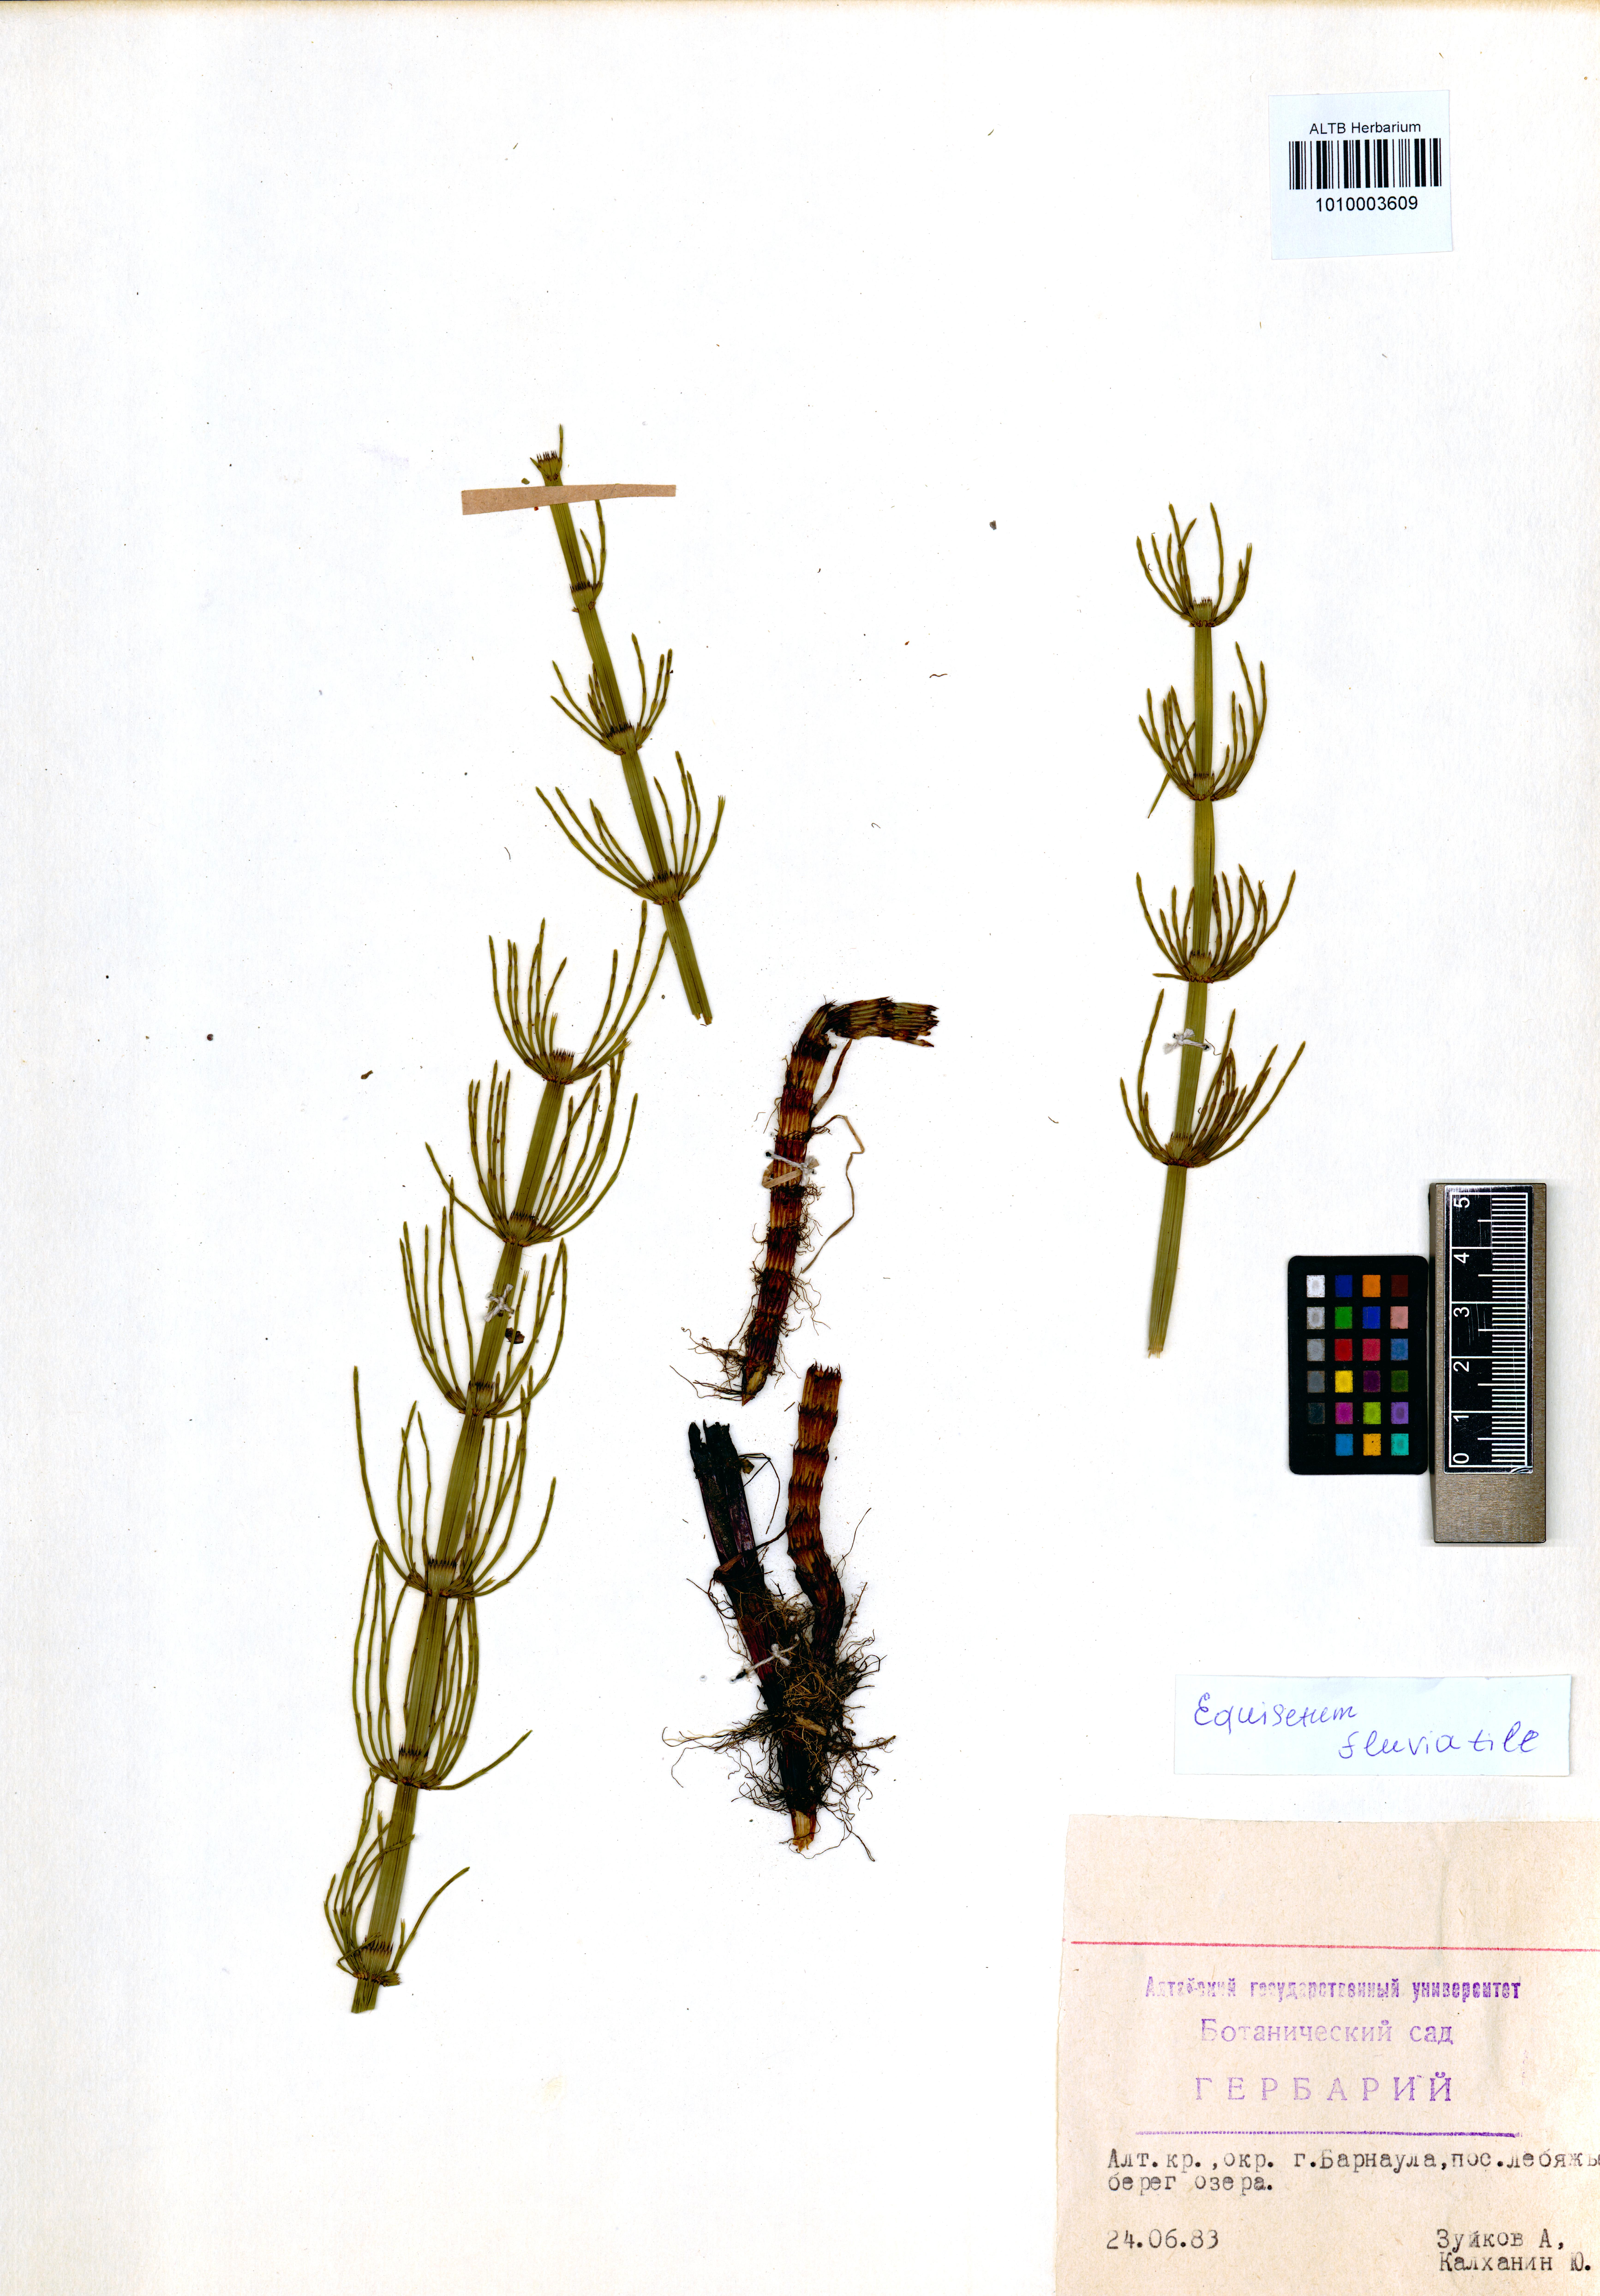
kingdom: Plantae
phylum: Tracheophyta
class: Polypodiopsida
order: Equisetales
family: Equisetaceae
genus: Equisetum
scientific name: Equisetum fluviatile
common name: Water horsetail
